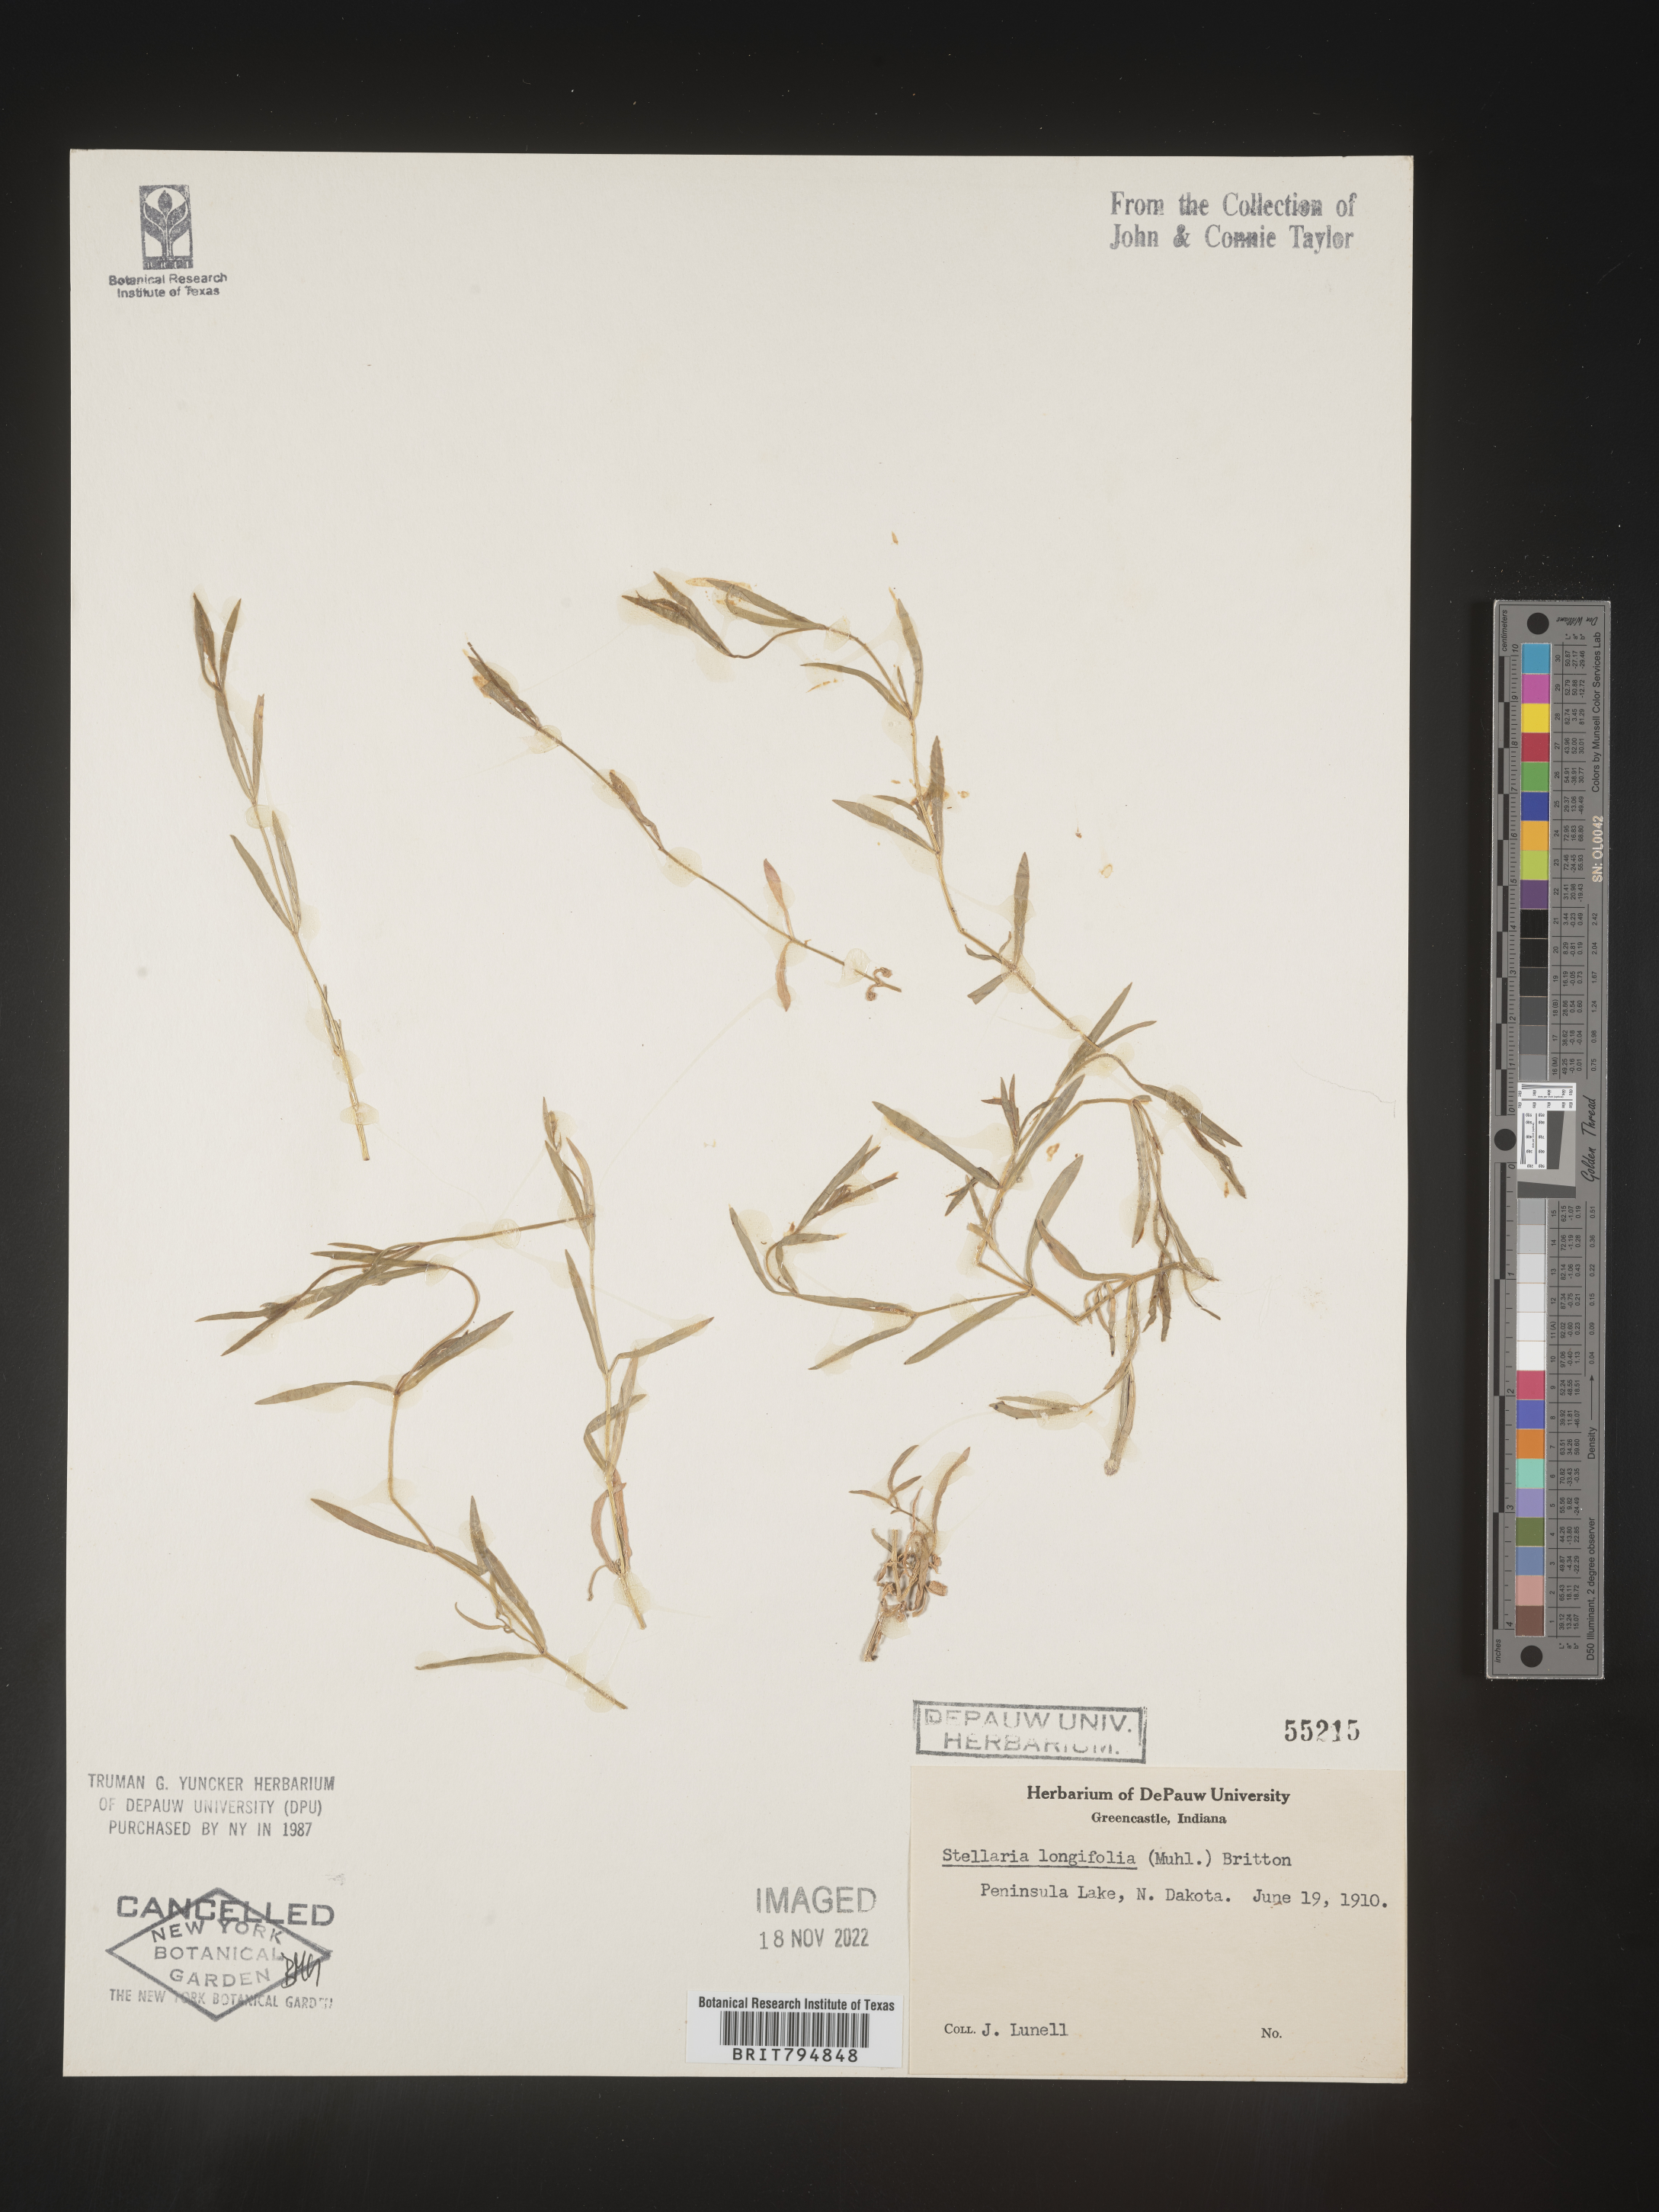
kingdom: Plantae
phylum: Tracheophyta
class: Magnoliopsida
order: Caryophyllales
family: Caryophyllaceae
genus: Stellaria
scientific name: Stellaria longifolia
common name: Long-leaved chickweed
